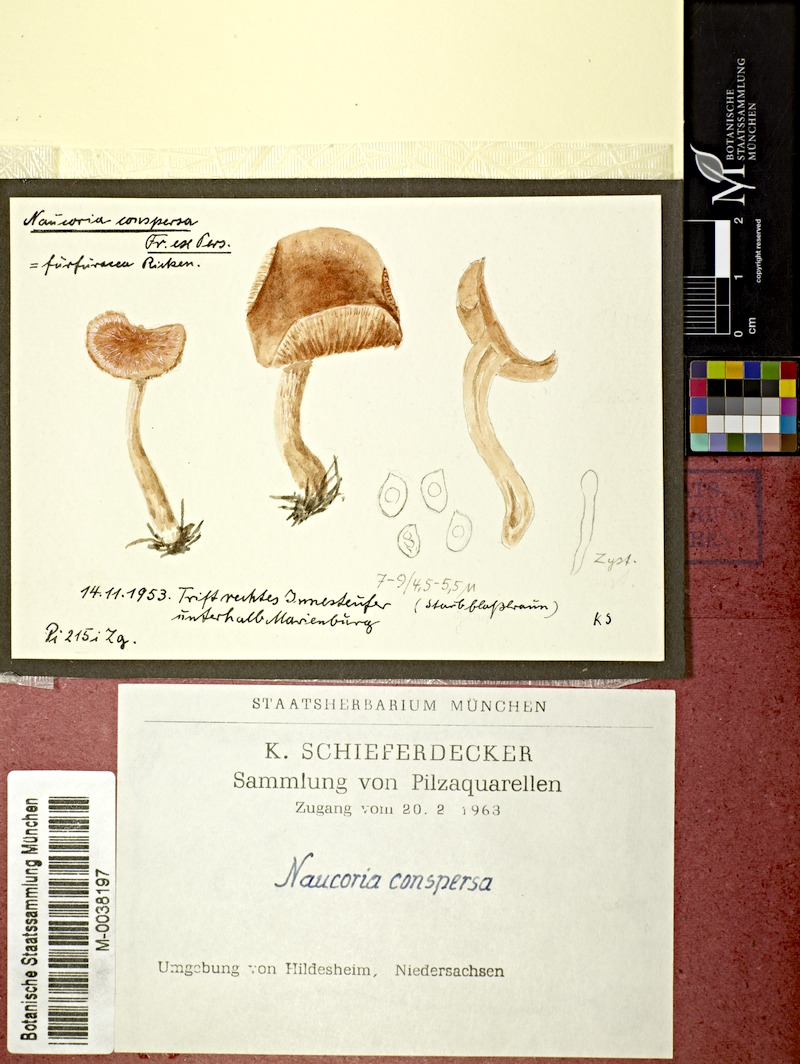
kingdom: Fungi
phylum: Basidiomycota
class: Agaricomycetes
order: Agaricales
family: Tubariaceae
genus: Tubaria
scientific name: Tubaria conspersa
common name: Felted twiglet
